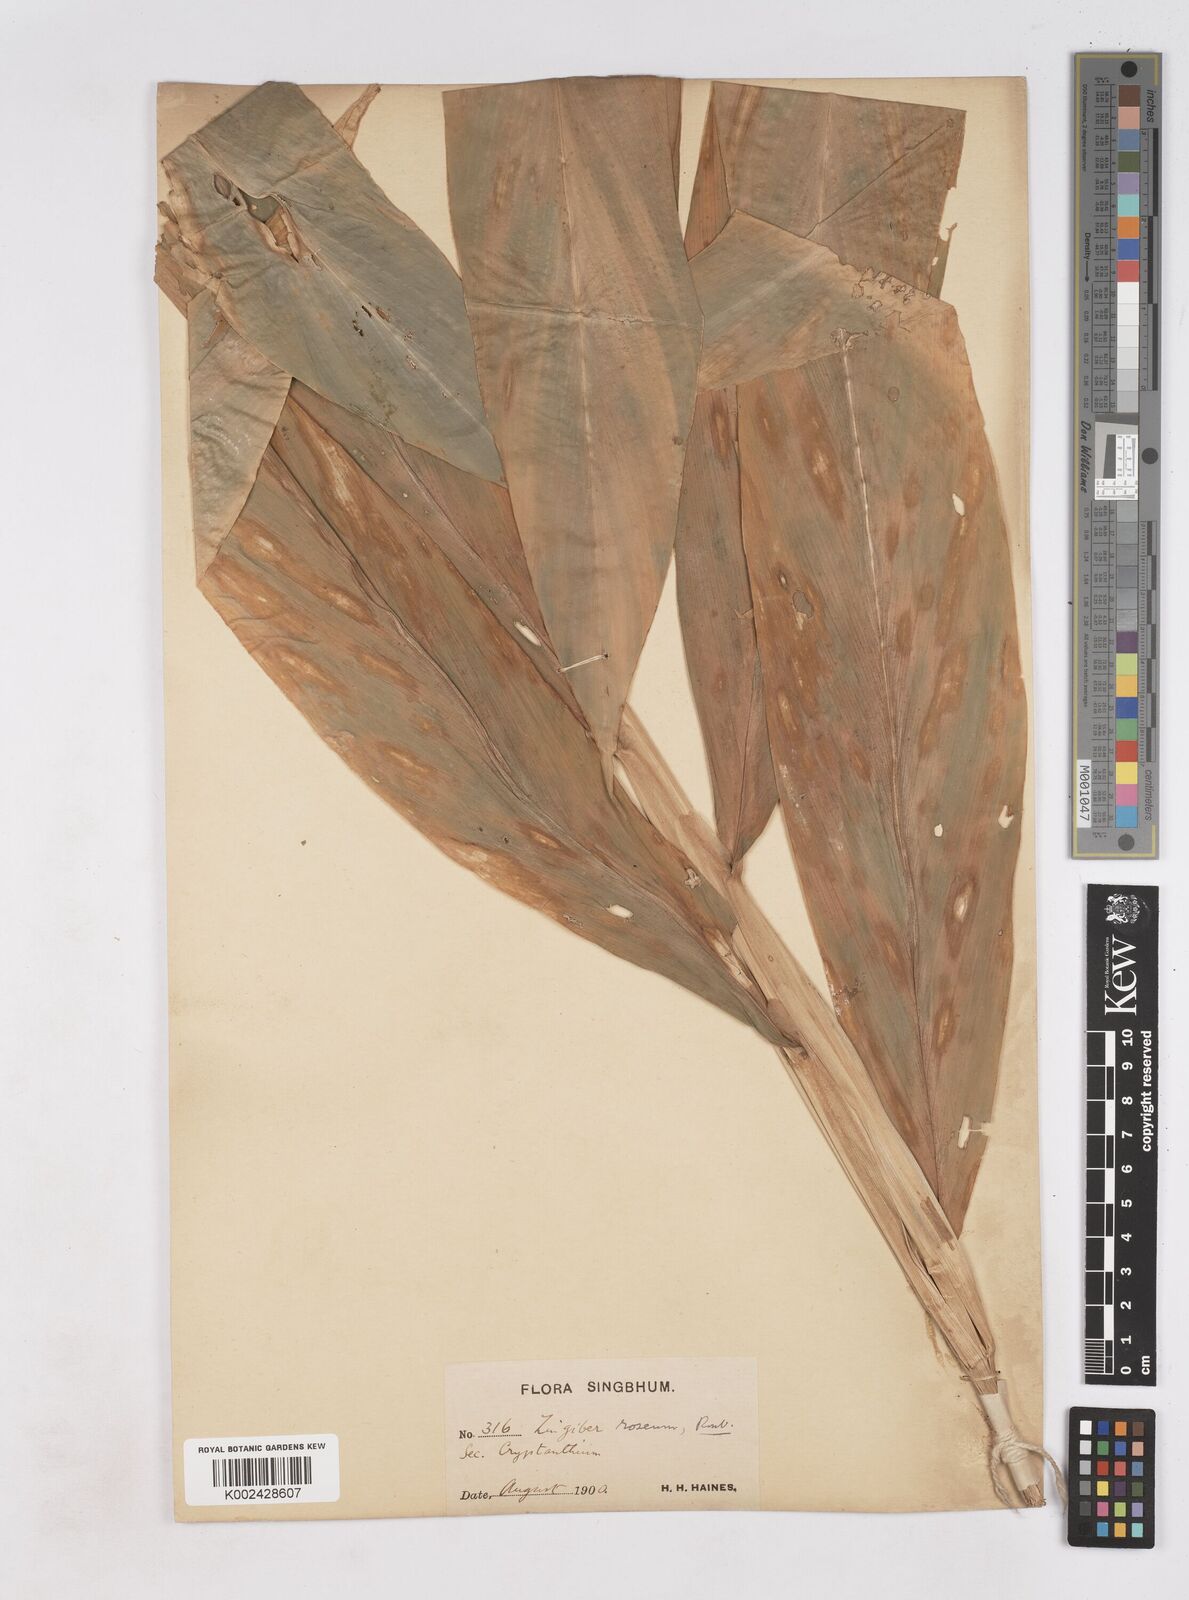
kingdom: Plantae
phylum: Tracheophyta
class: Liliopsida
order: Zingiberales
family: Zingiberaceae
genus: Zingiber
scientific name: Zingiber roseum
